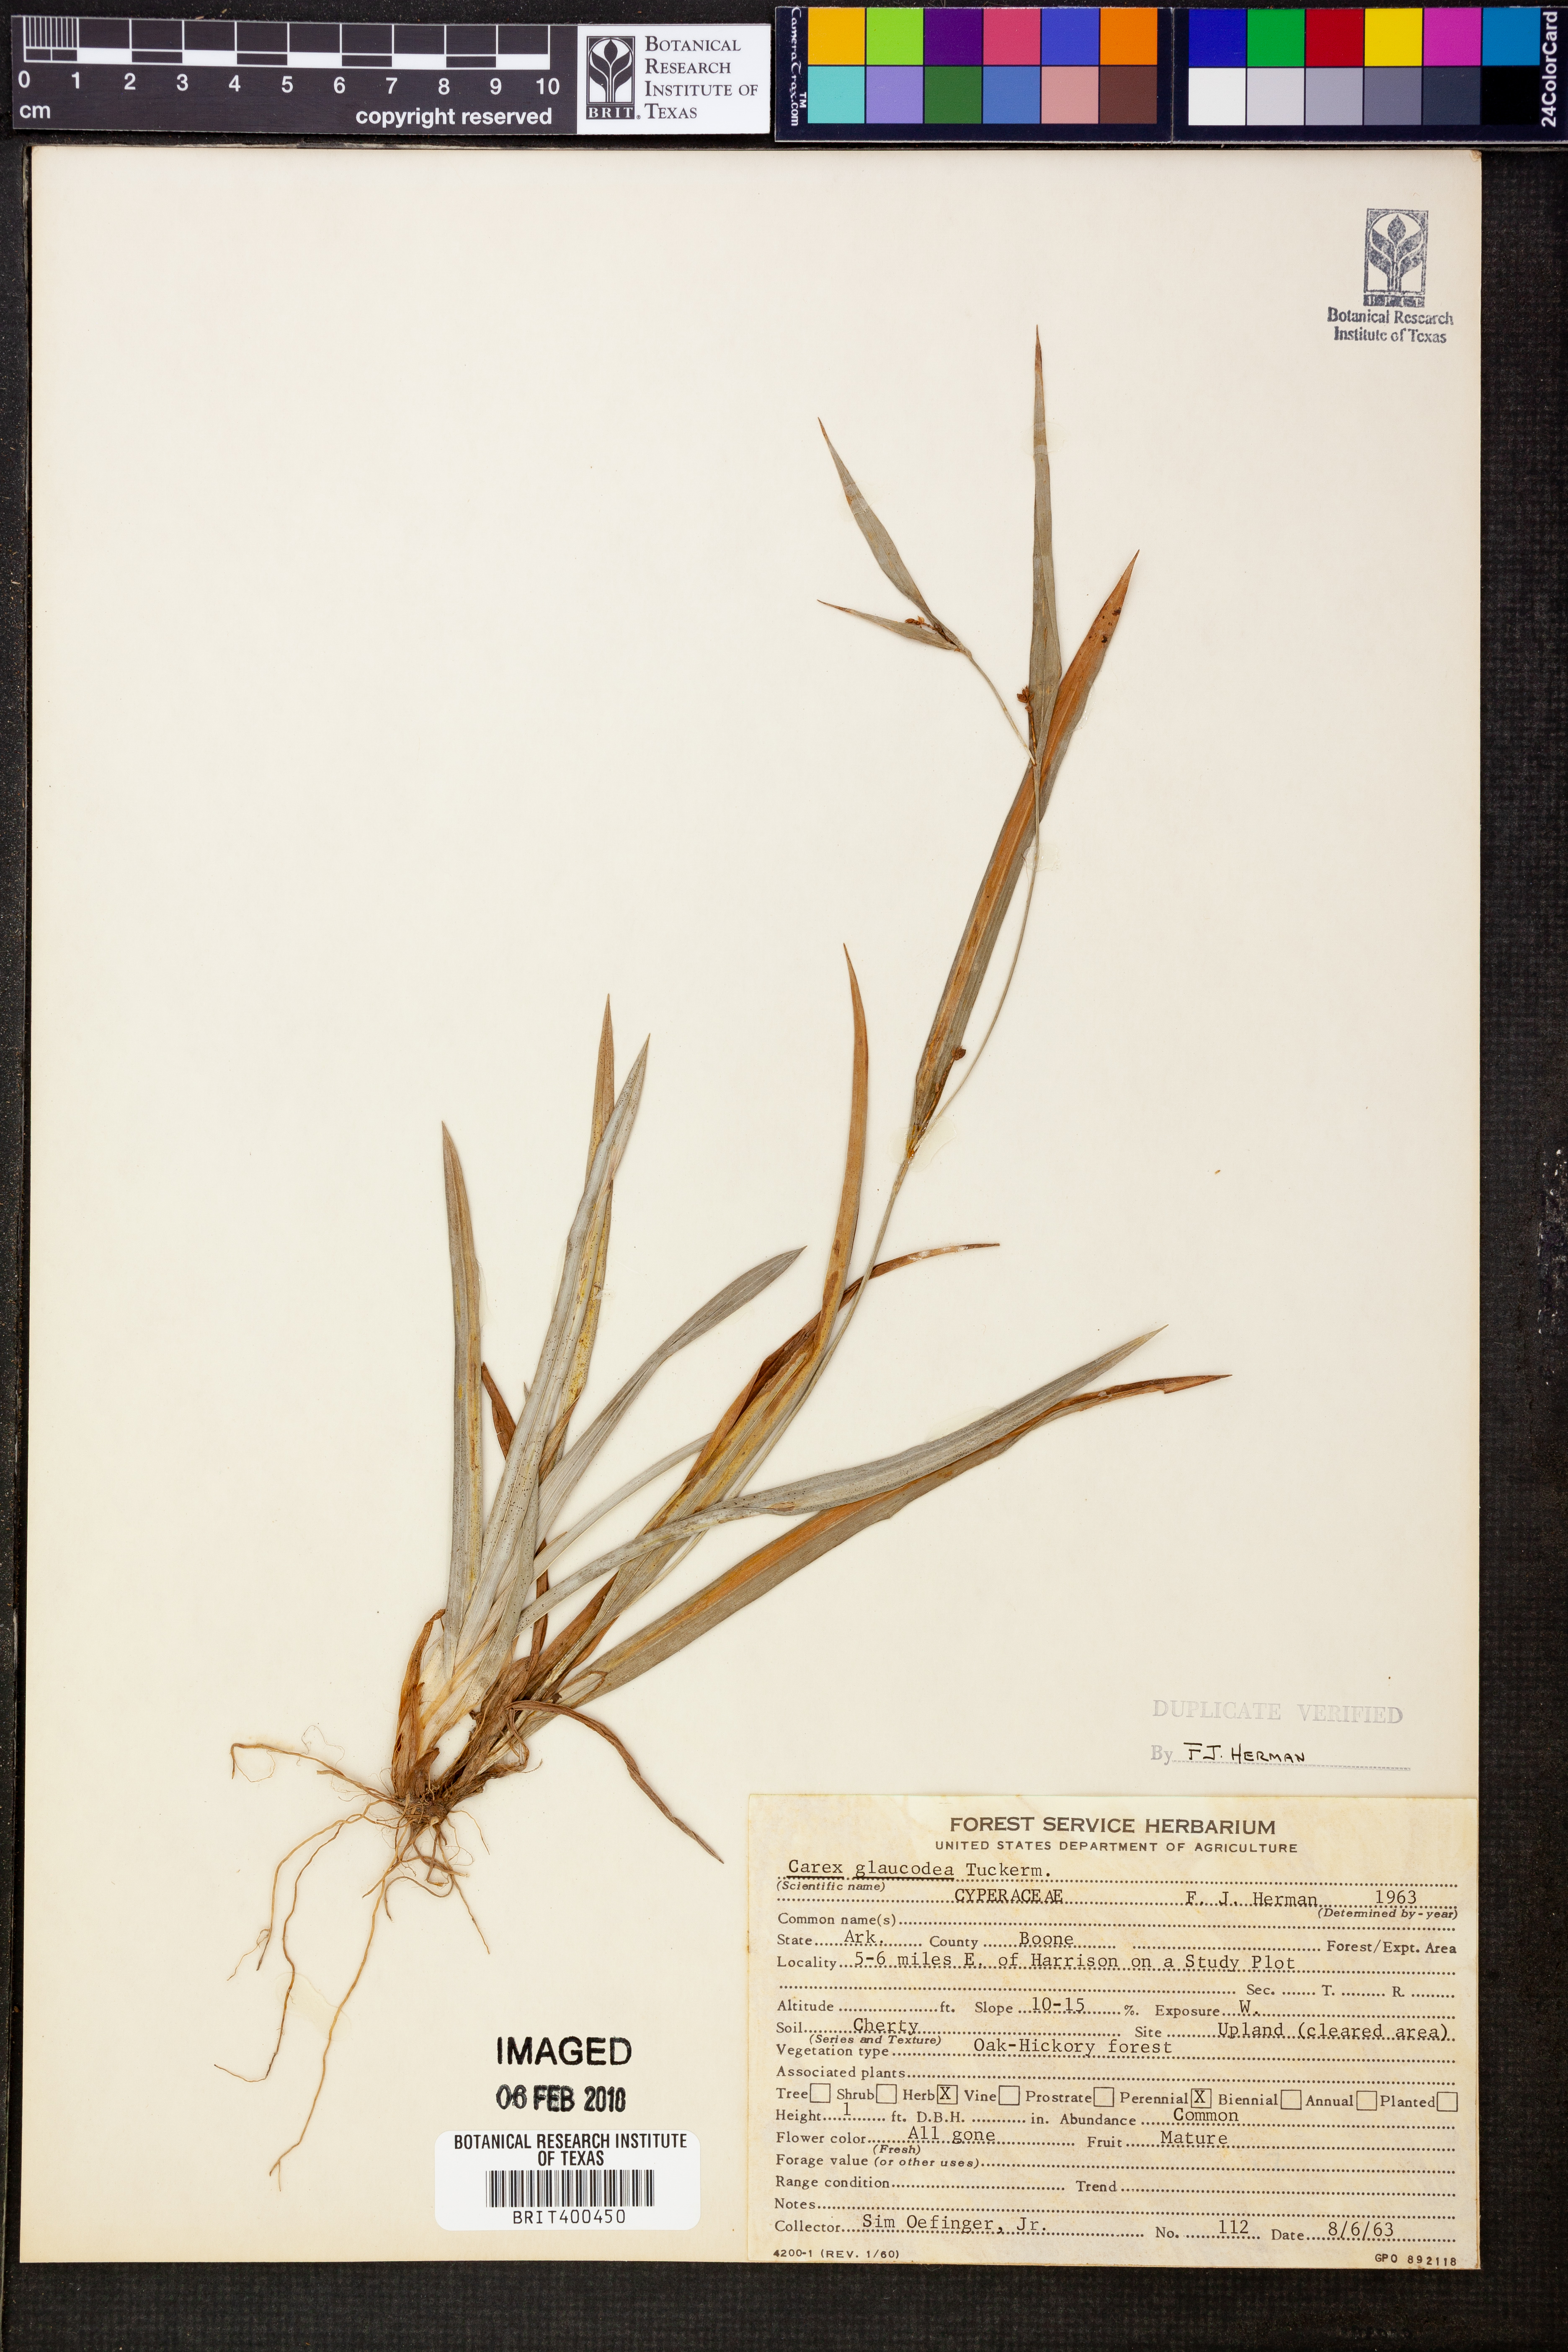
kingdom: Plantae
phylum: Tracheophyta
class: Liliopsida
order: Poales
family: Cyperaceae
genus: Carex
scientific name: Carex glaucodea
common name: Blue sedge
